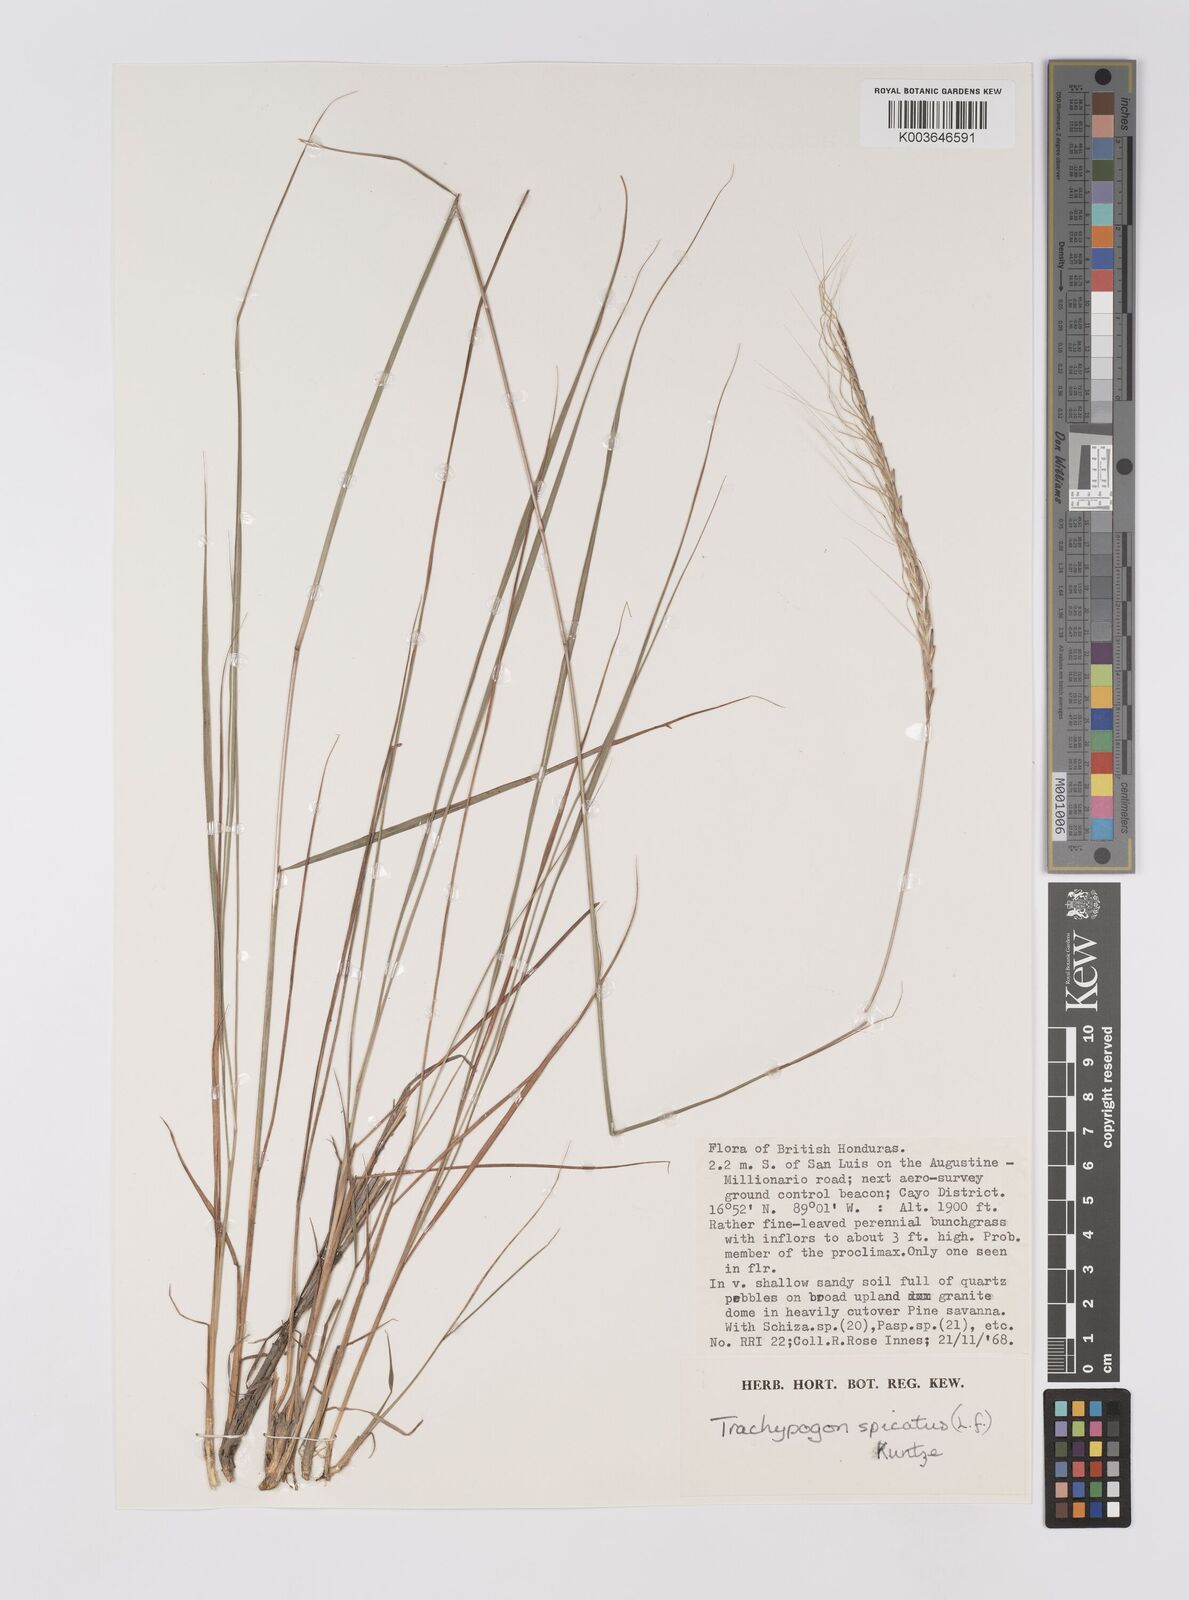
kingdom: Plantae
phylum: Tracheophyta
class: Liliopsida
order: Poales
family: Poaceae
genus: Trachypogon
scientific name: Trachypogon spicatus
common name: Crinkle-awn
